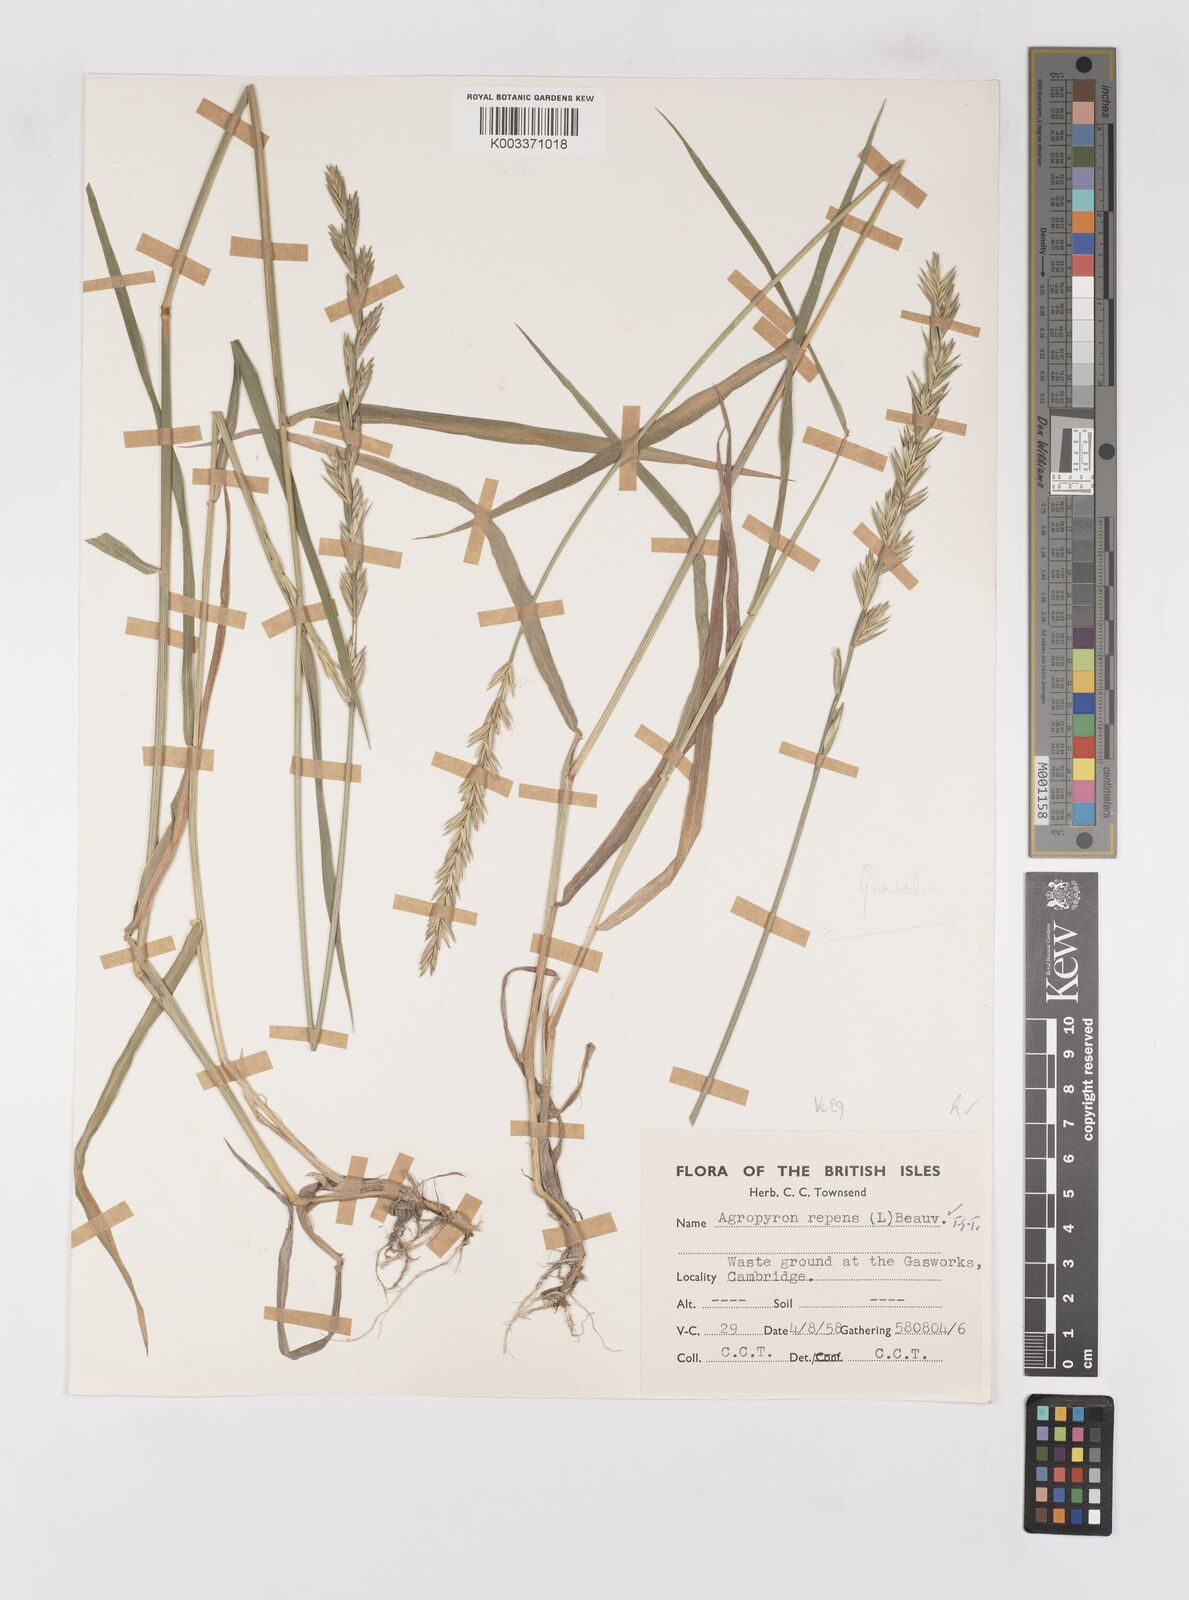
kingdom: Plantae
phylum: Tracheophyta
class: Liliopsida
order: Poales
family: Poaceae
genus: Elymus
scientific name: Elymus repens
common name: Quackgrass
